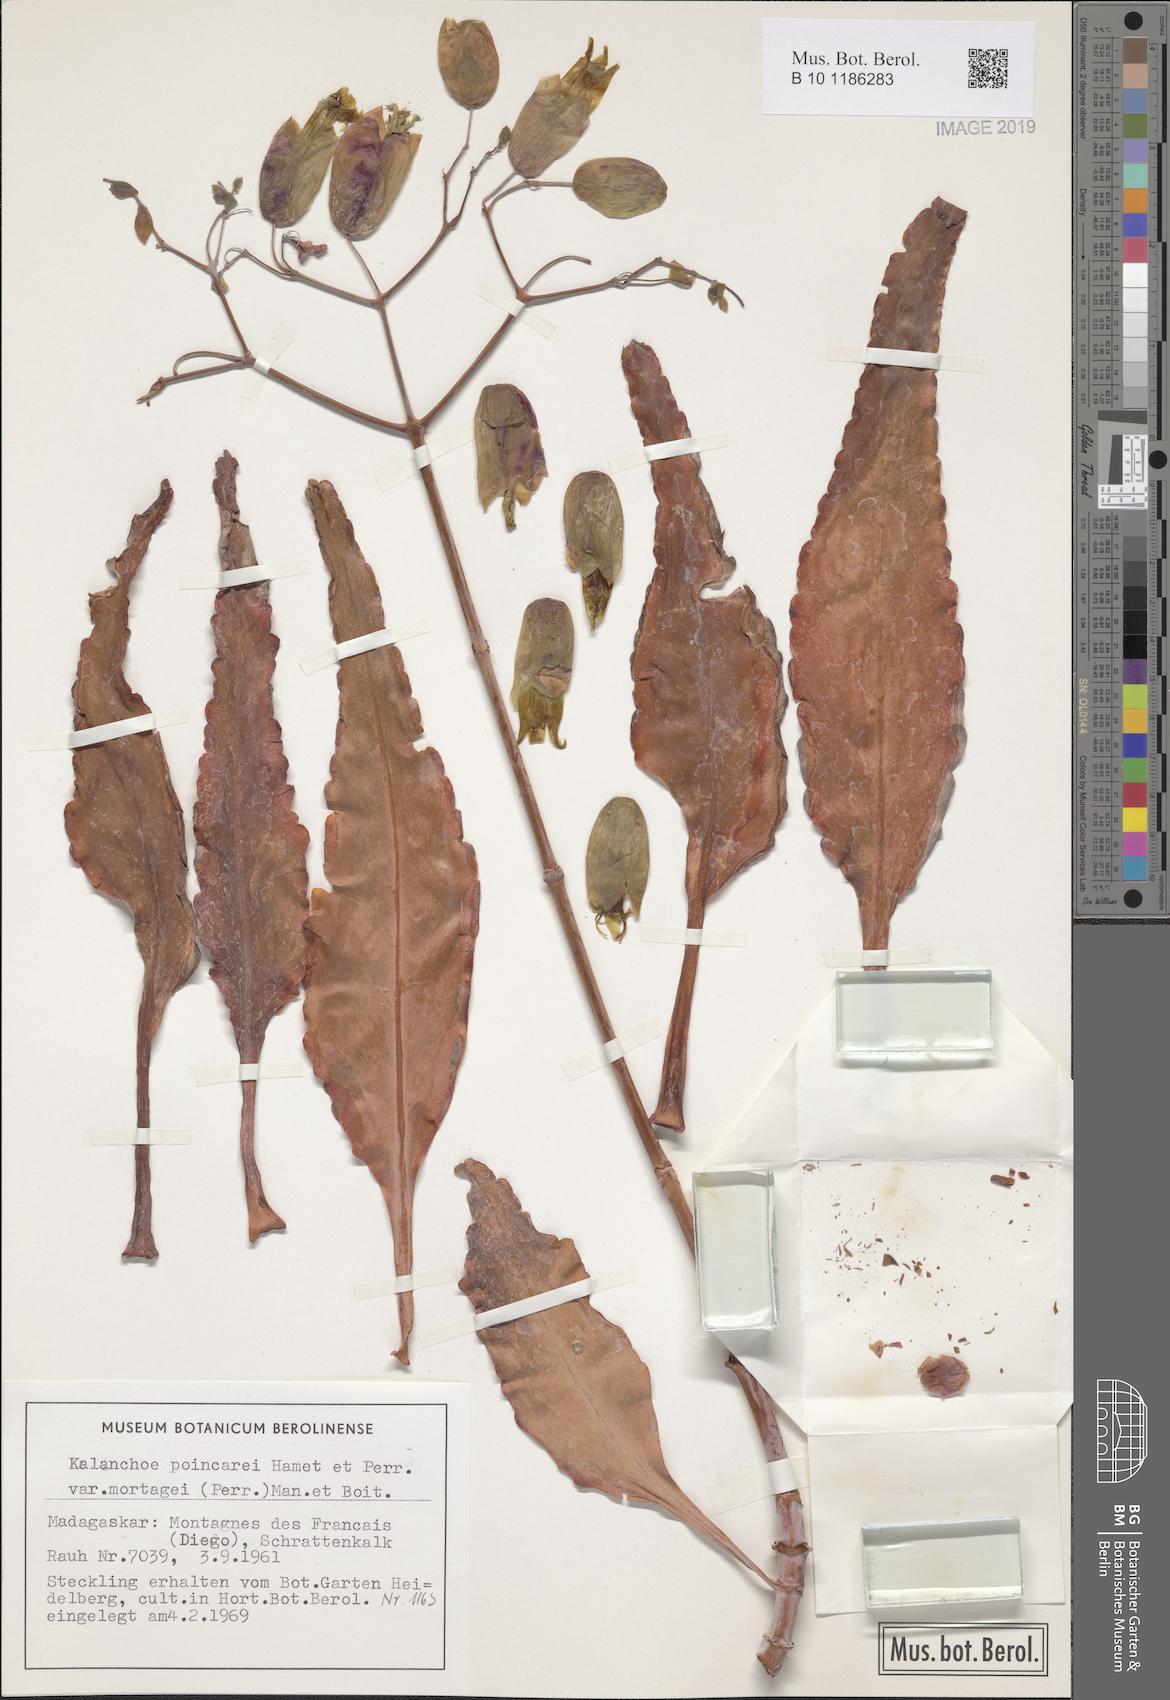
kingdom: Plantae
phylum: Tracheophyta
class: Magnoliopsida
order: Saxifragales
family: Crassulaceae
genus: Kalanchoe
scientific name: Kalanchoe mortagei
